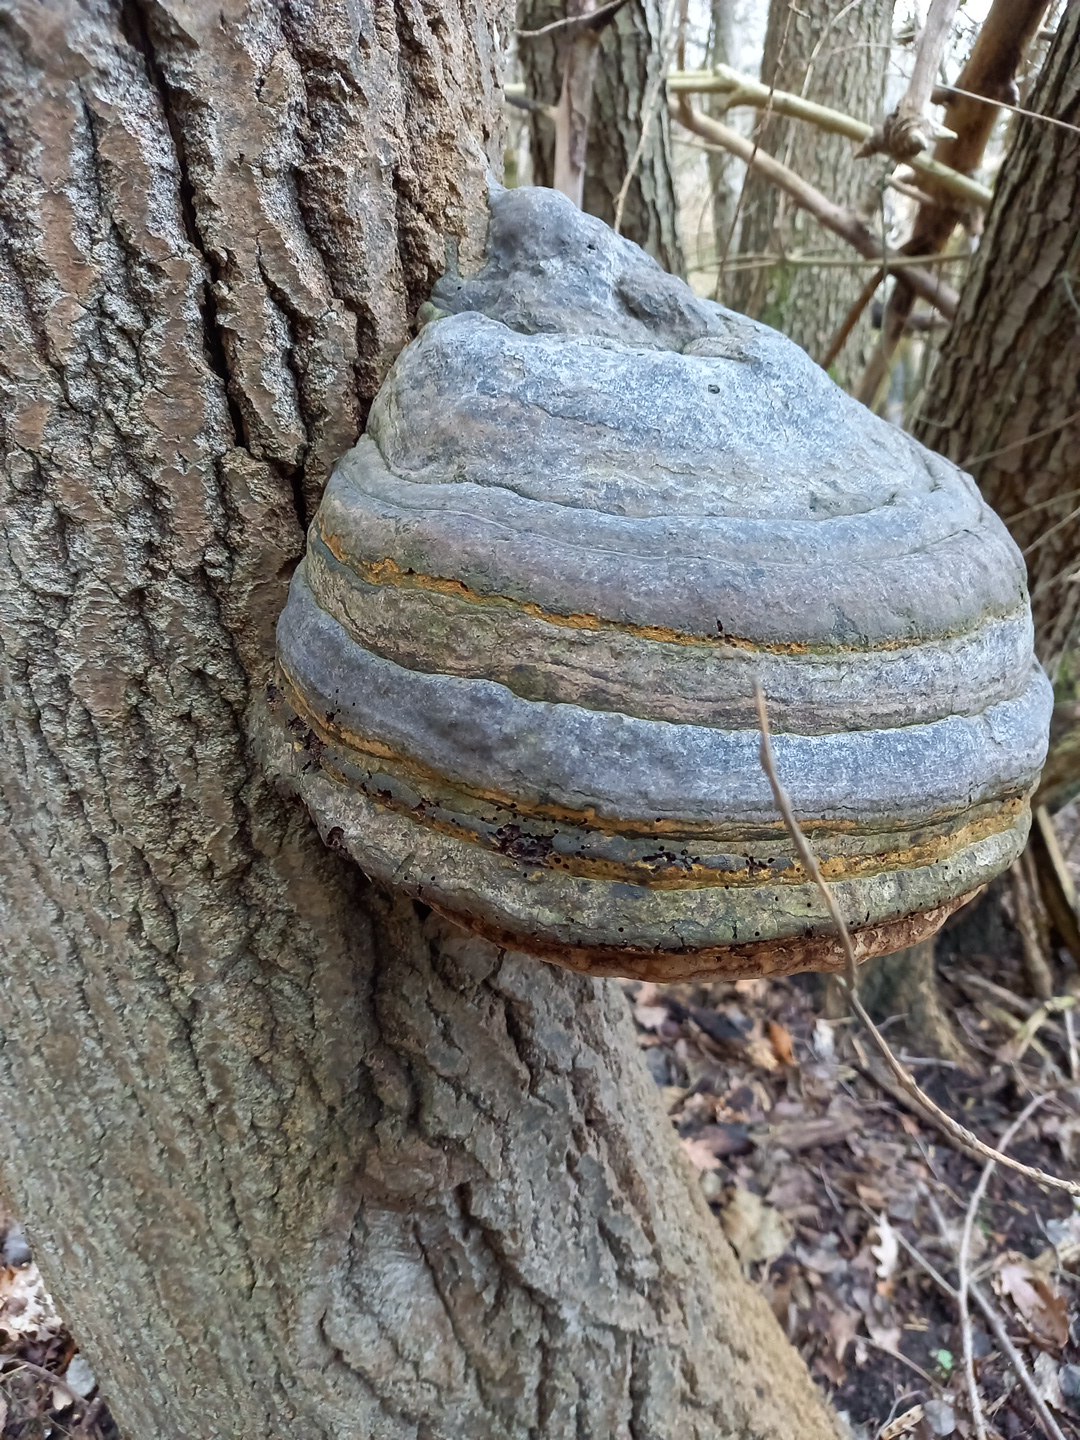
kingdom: Fungi
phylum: Basidiomycota
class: Agaricomycetes
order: Polyporales
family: Polyporaceae
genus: Fomes
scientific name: Fomes fomentarius
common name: tøndersvamp
